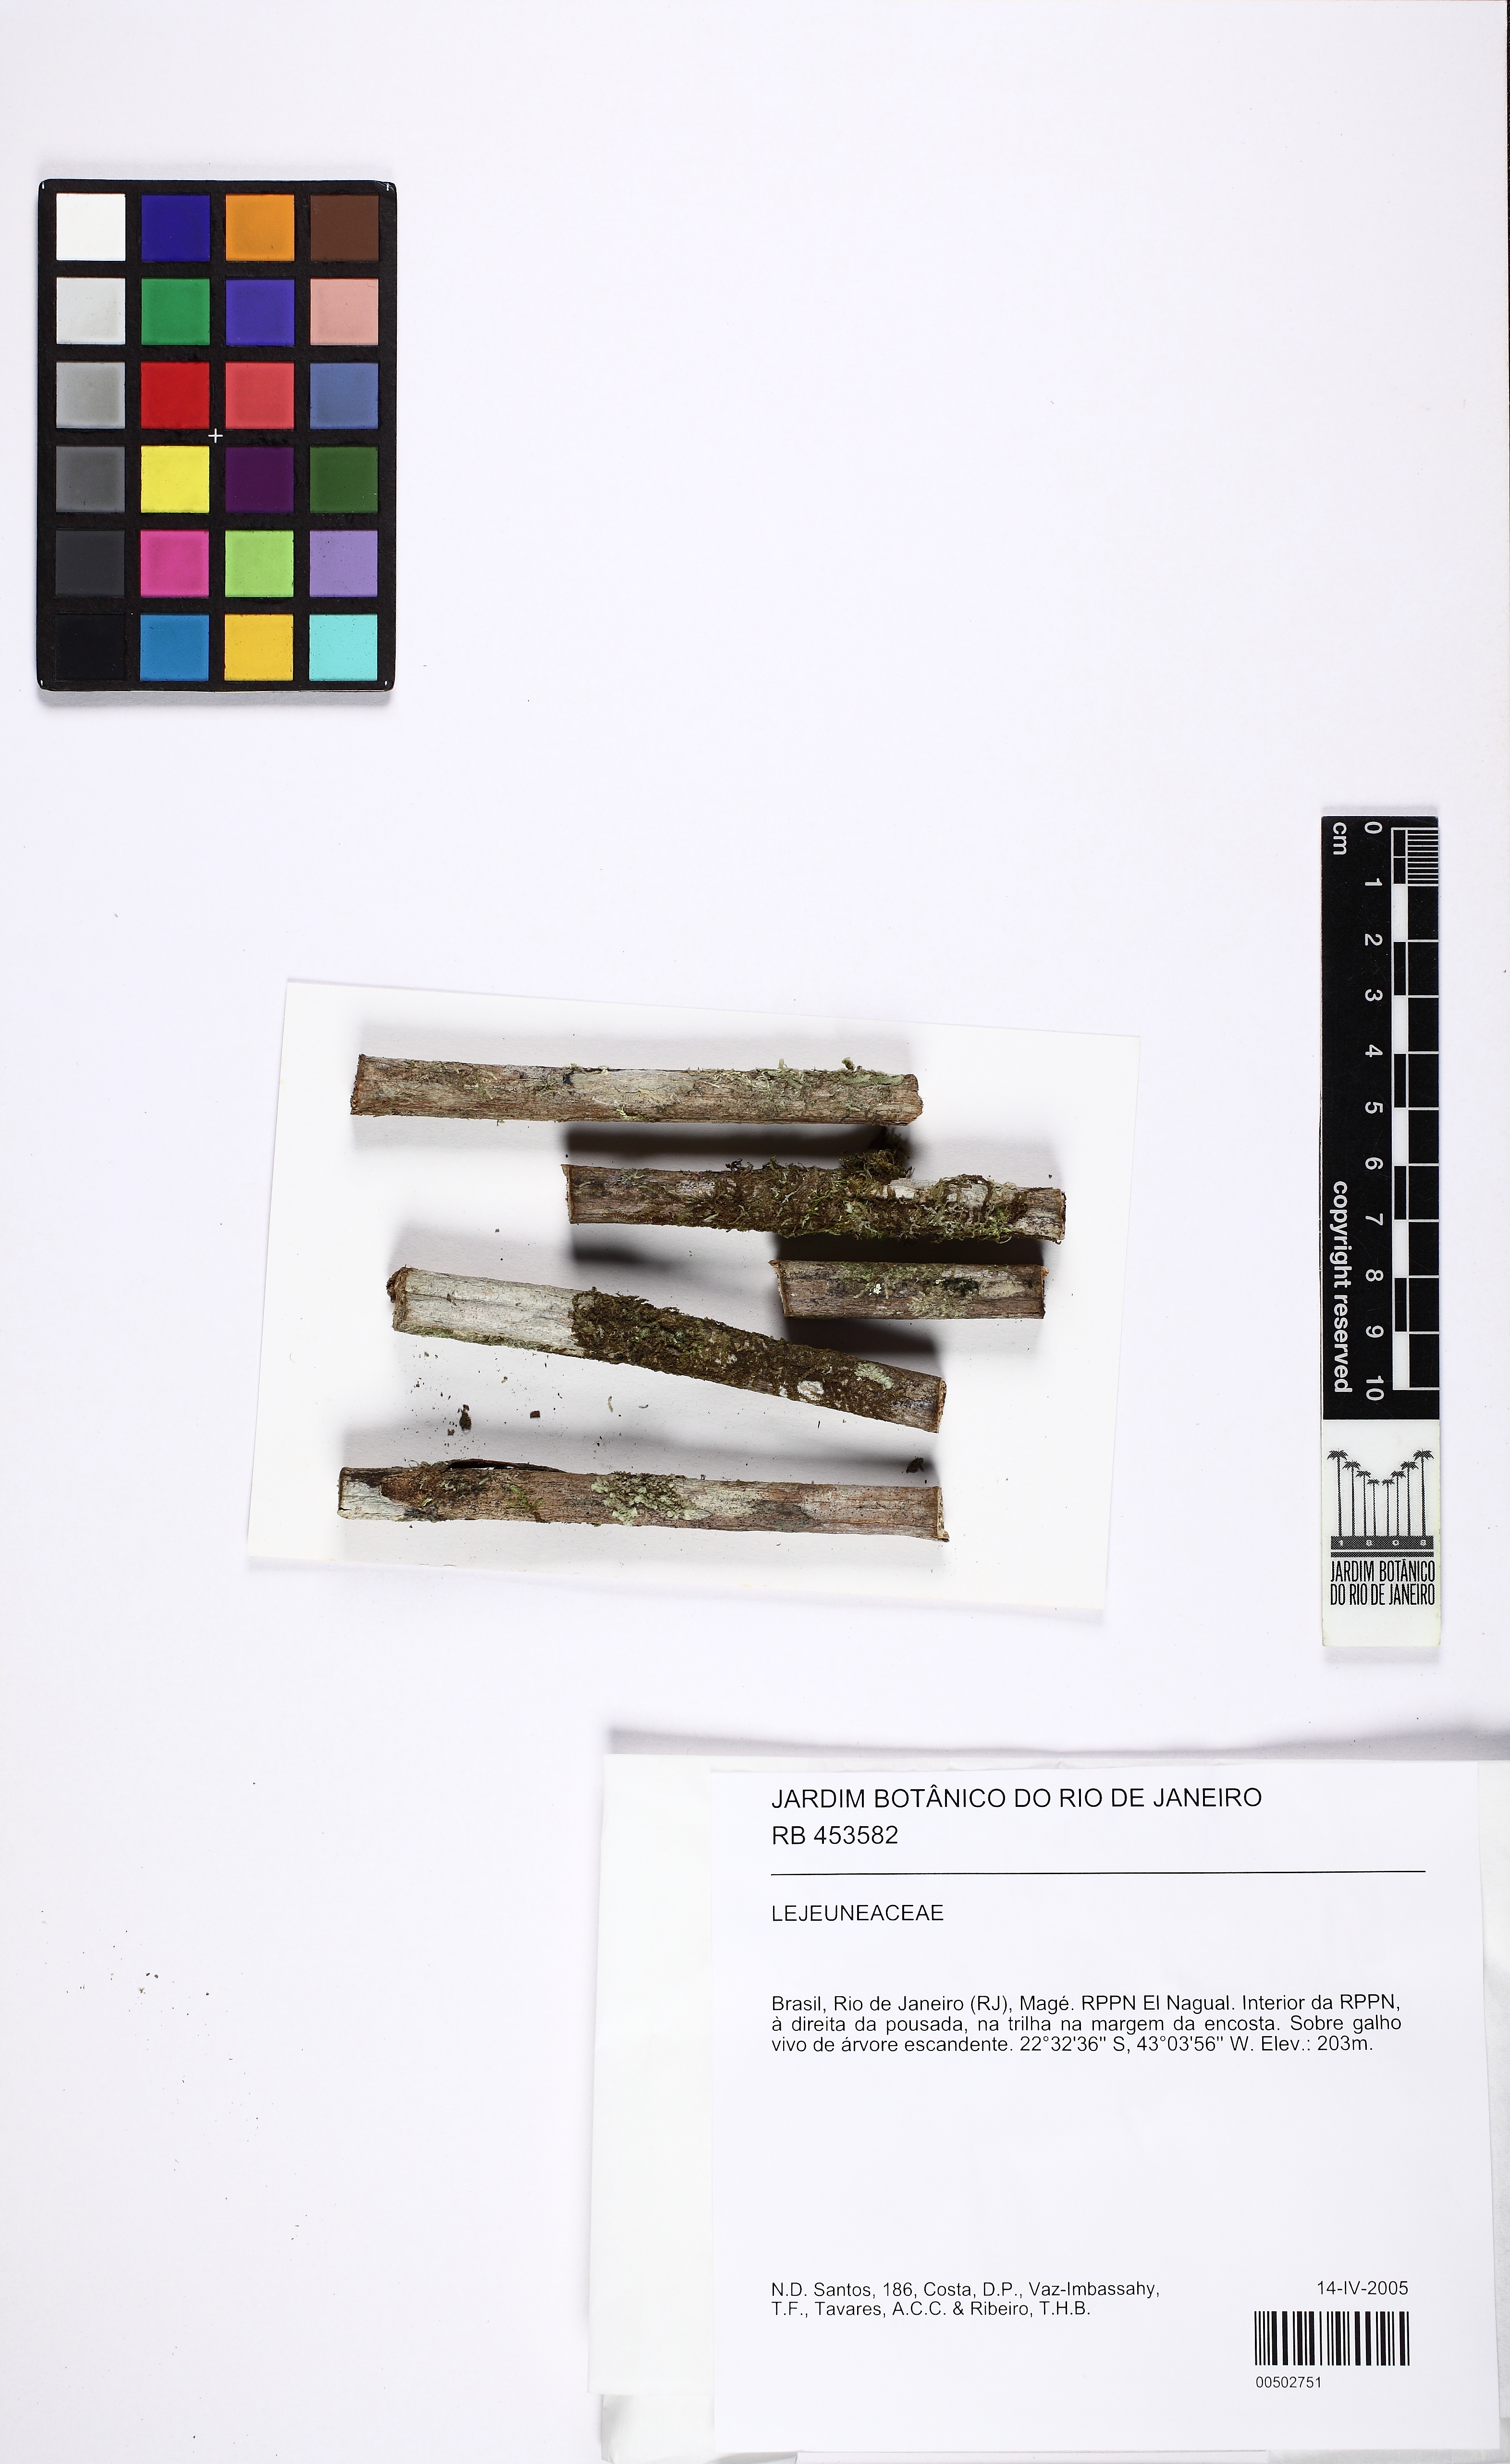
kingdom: Plantae
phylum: Marchantiophyta
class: Jungermanniopsida
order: Porellales
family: Lejeuneaceae
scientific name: Lejeuneaceae
